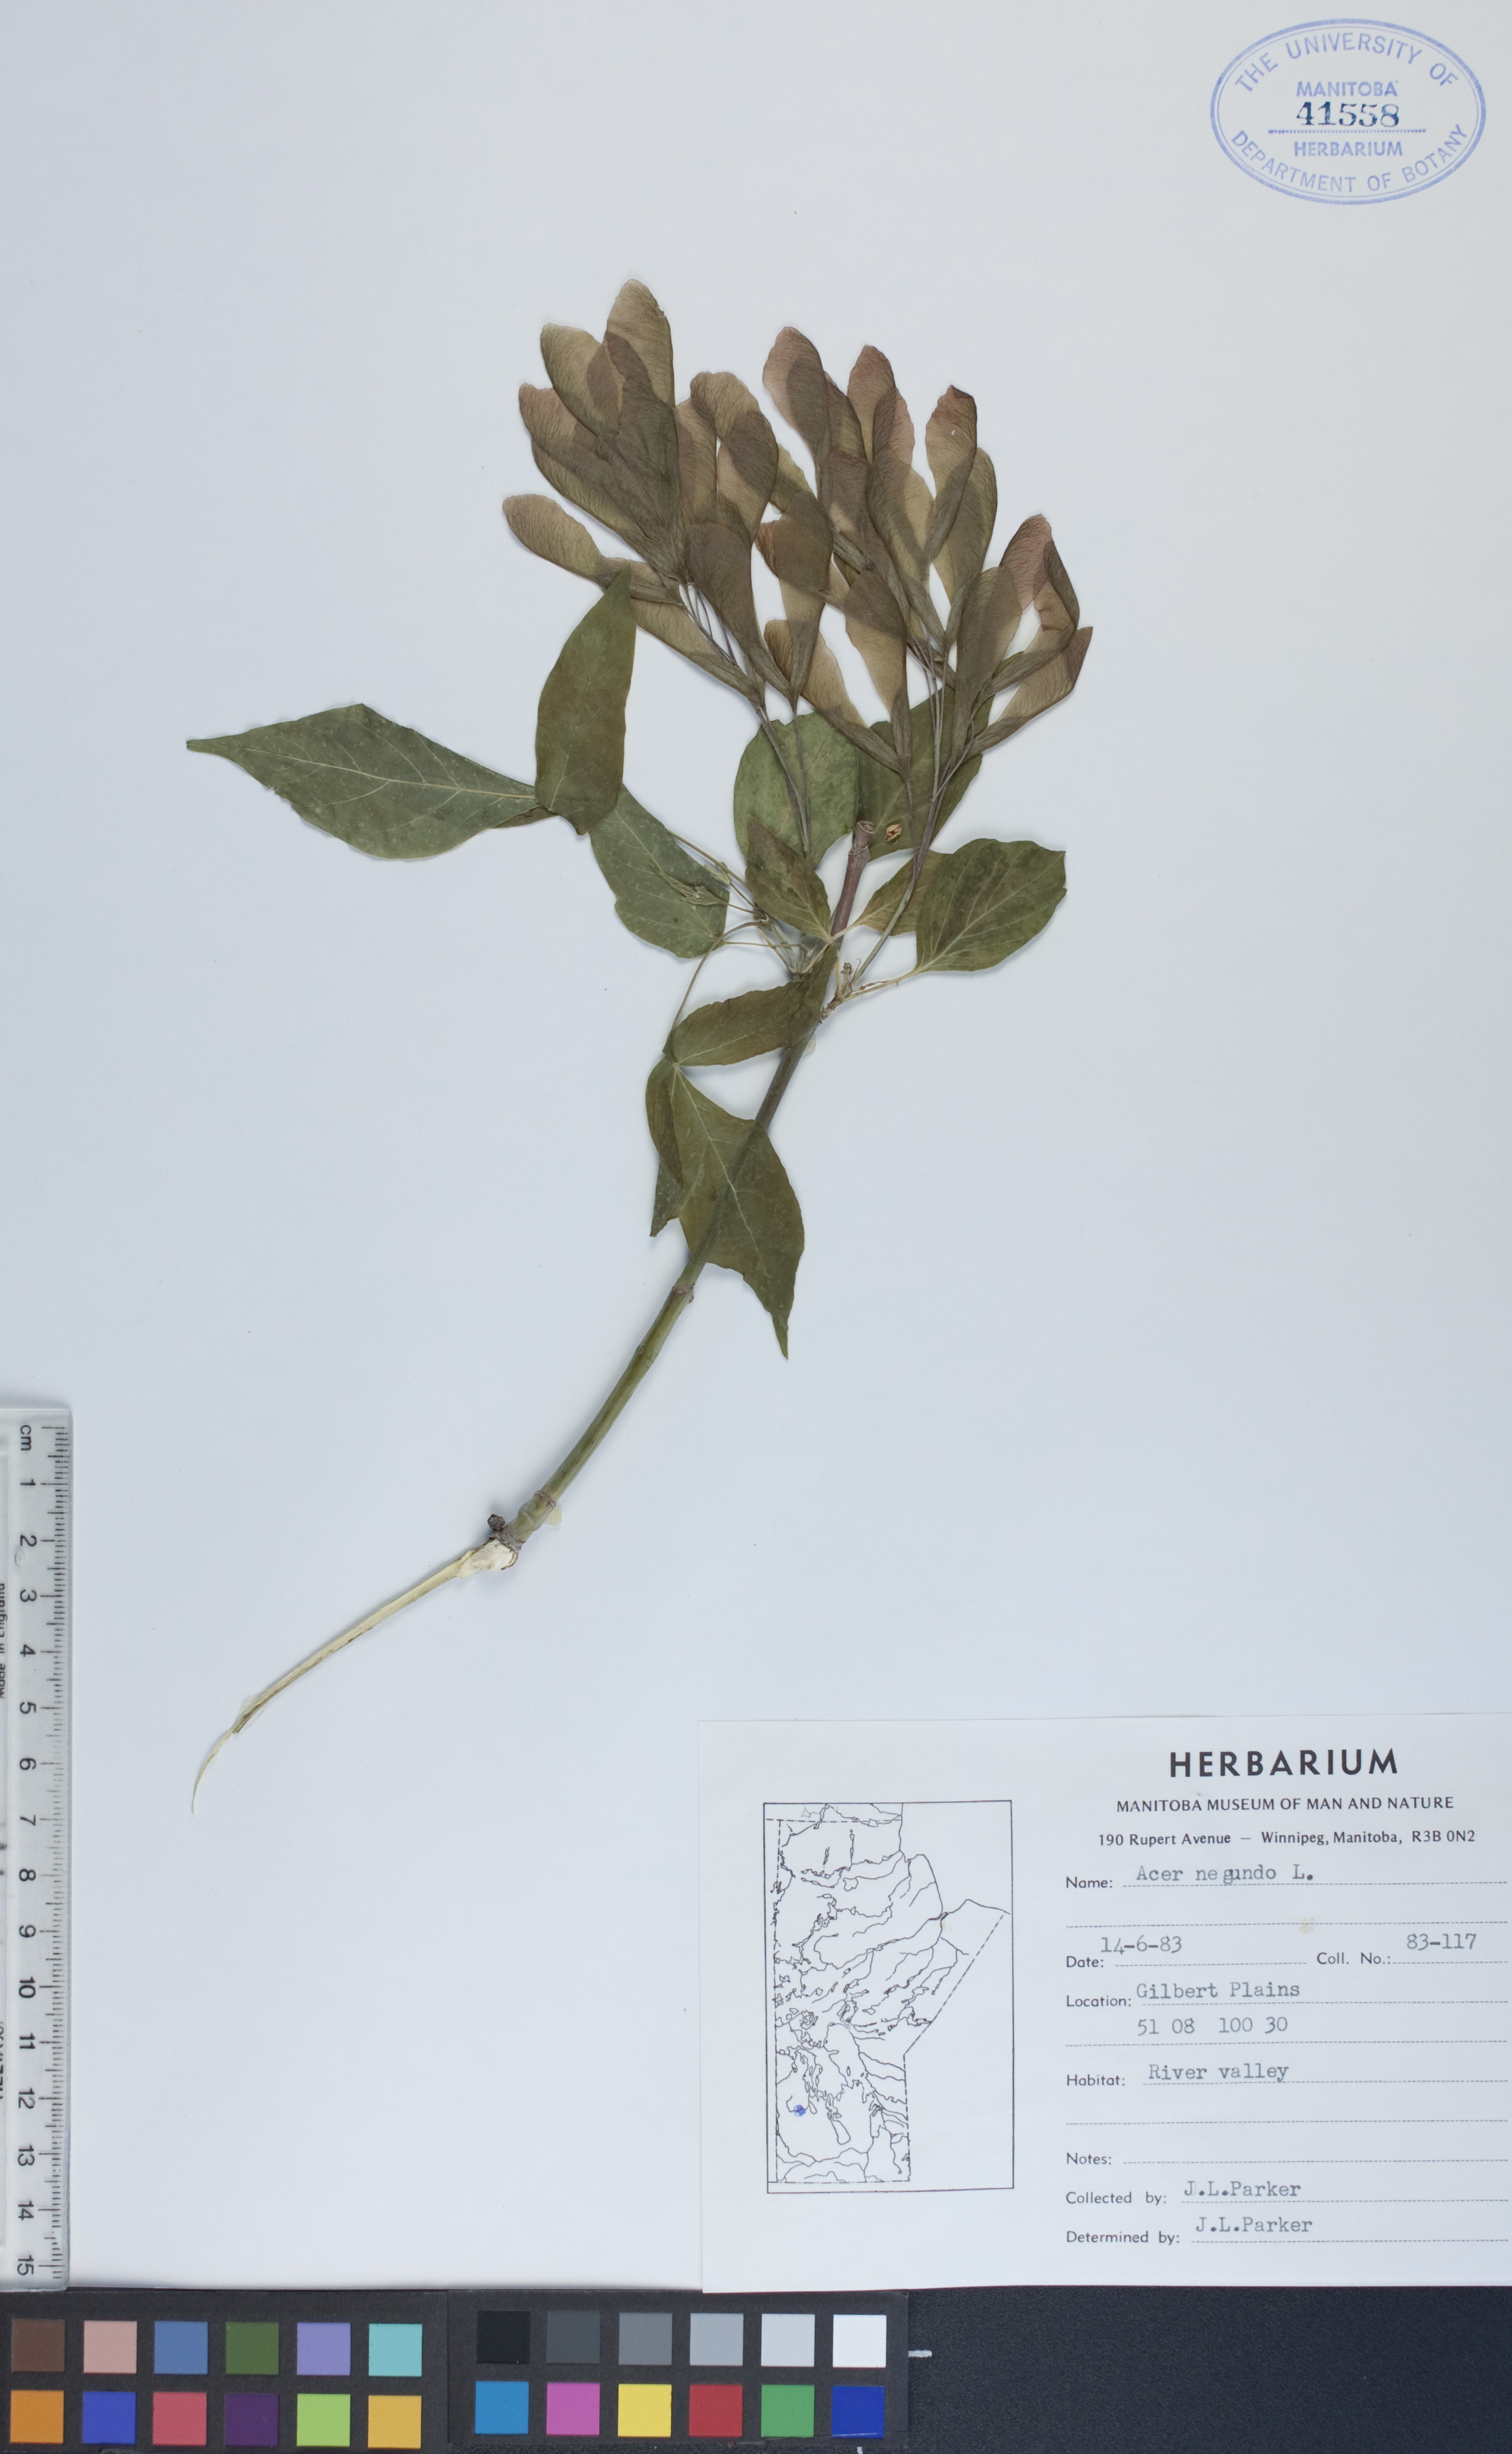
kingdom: Plantae
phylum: Tracheophyta
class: Magnoliopsida
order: Sapindales
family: Sapindaceae
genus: Acer
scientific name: Acer negundo
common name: Ashleaf maple
